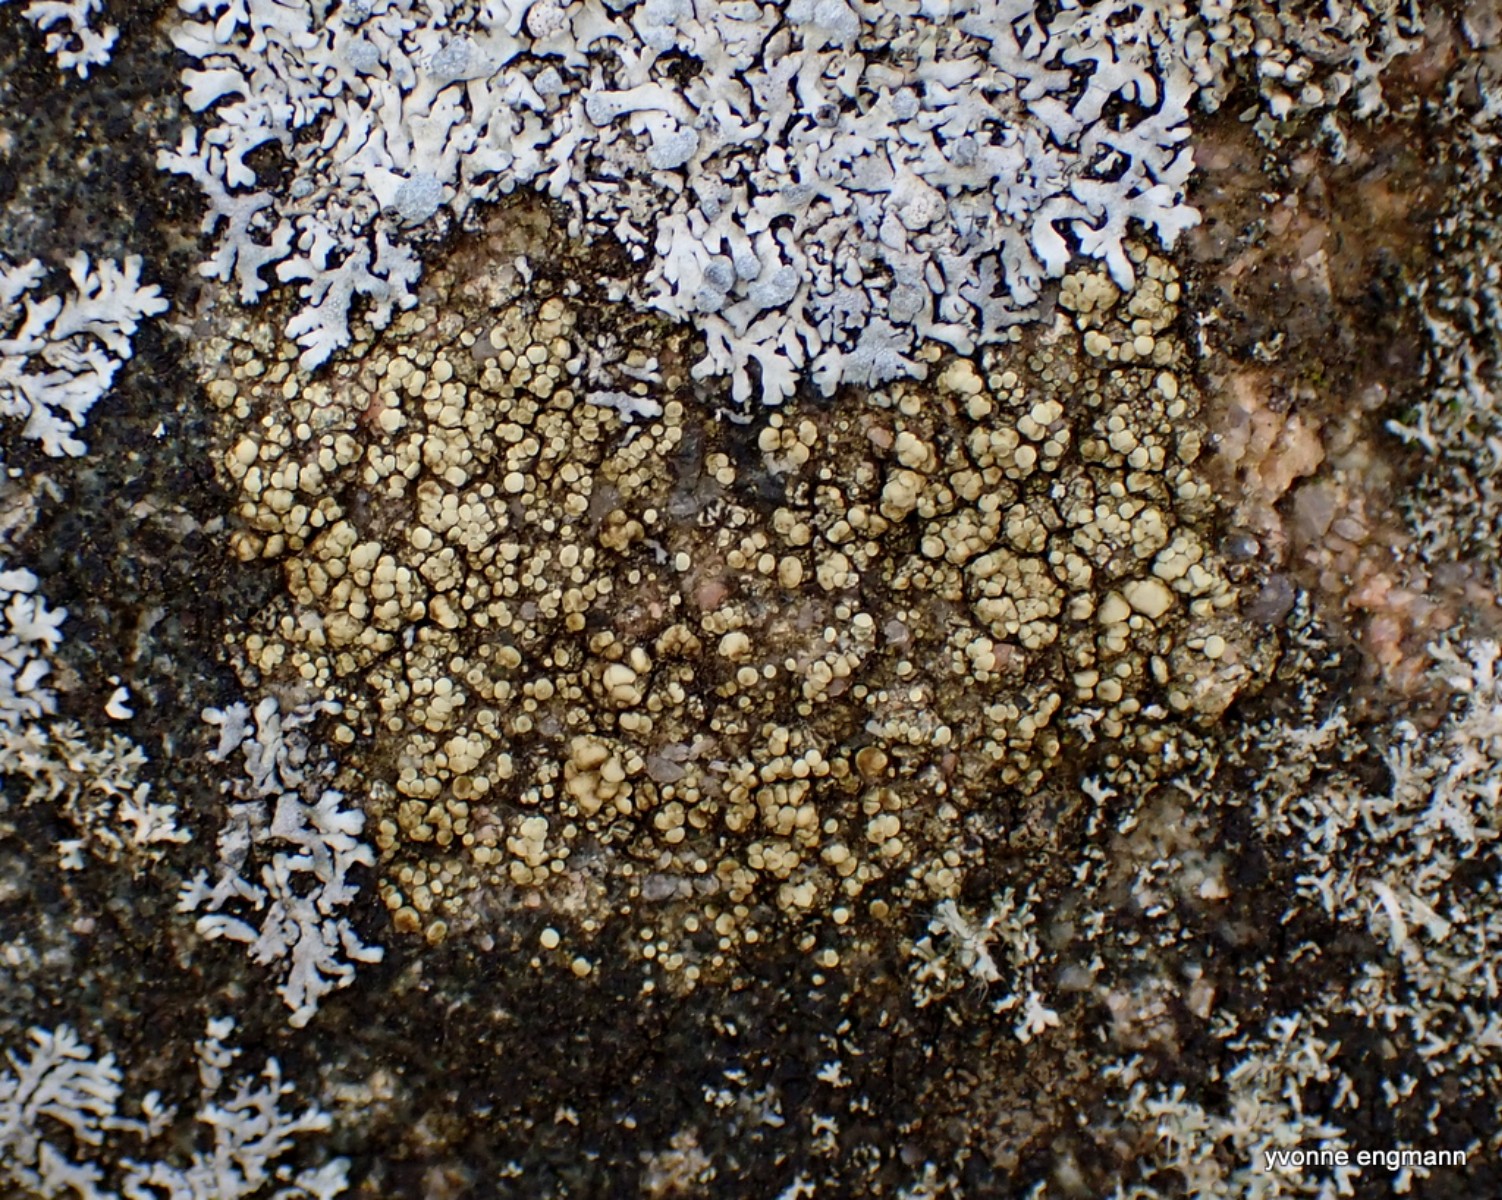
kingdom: Fungi
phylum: Ascomycota
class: Lecanoromycetes
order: Lecanorales
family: Lecanoraceae
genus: Lecanora
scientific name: Lecanora polytropa
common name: bleggrøn kantskivelav
